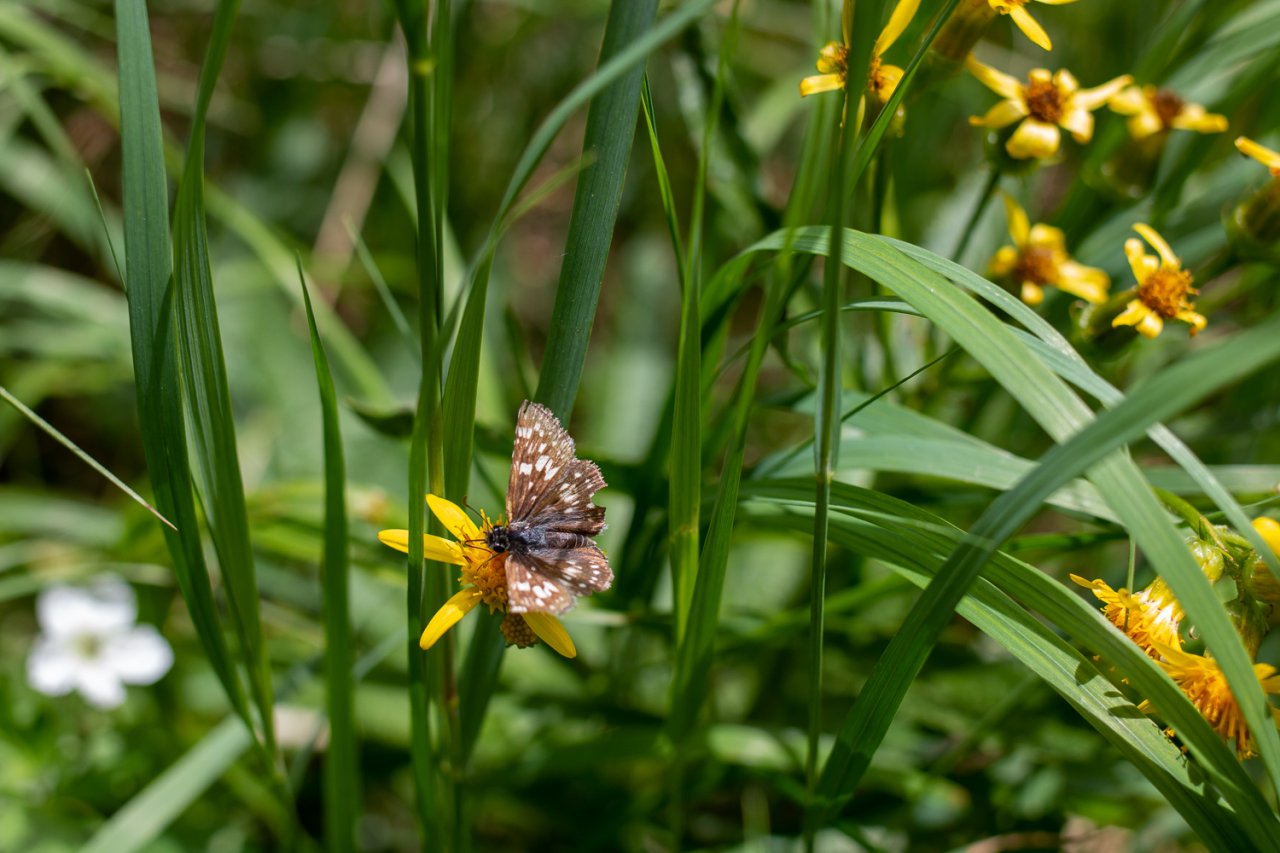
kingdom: Animalia
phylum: Arthropoda
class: Insecta
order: Lepidoptera
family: Hesperiidae
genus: Pyrgus
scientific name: Pyrgus communis
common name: Common Checkered-Skipper
